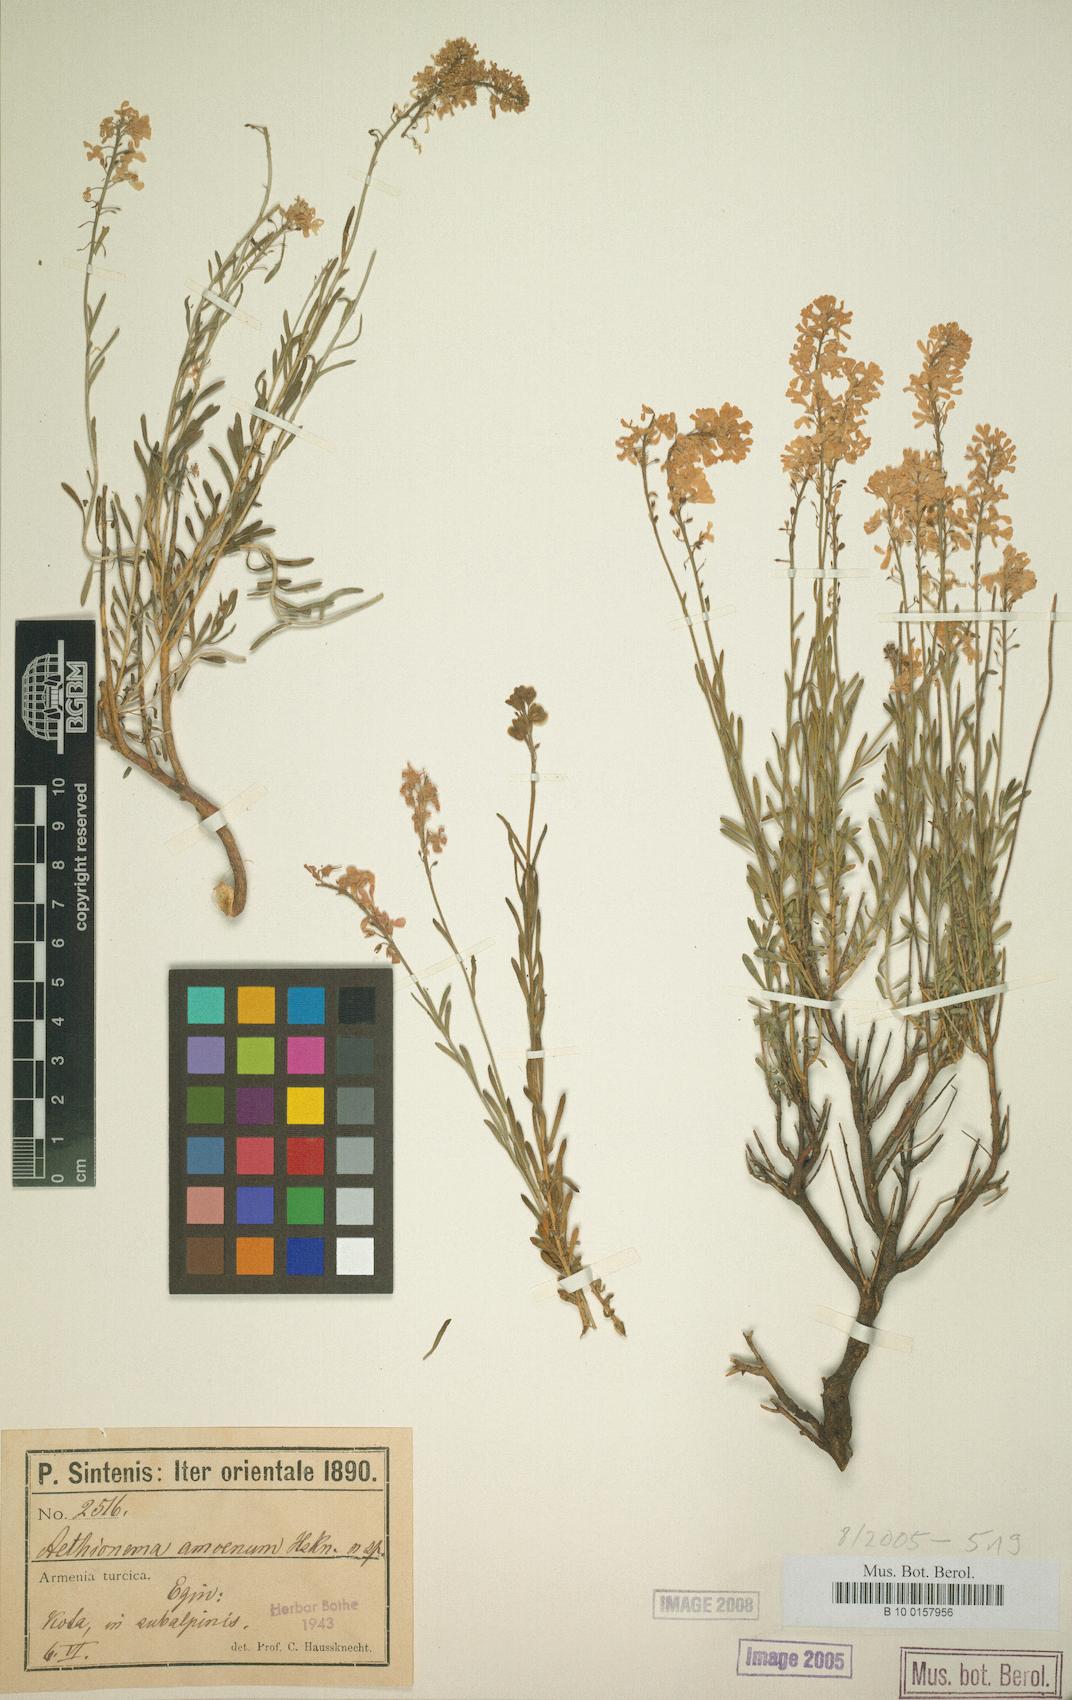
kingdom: Plantae
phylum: Tracheophyta
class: Magnoliopsida
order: Brassicales
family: Brassicaceae
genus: Aethionema
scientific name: Aethionema amoenum
